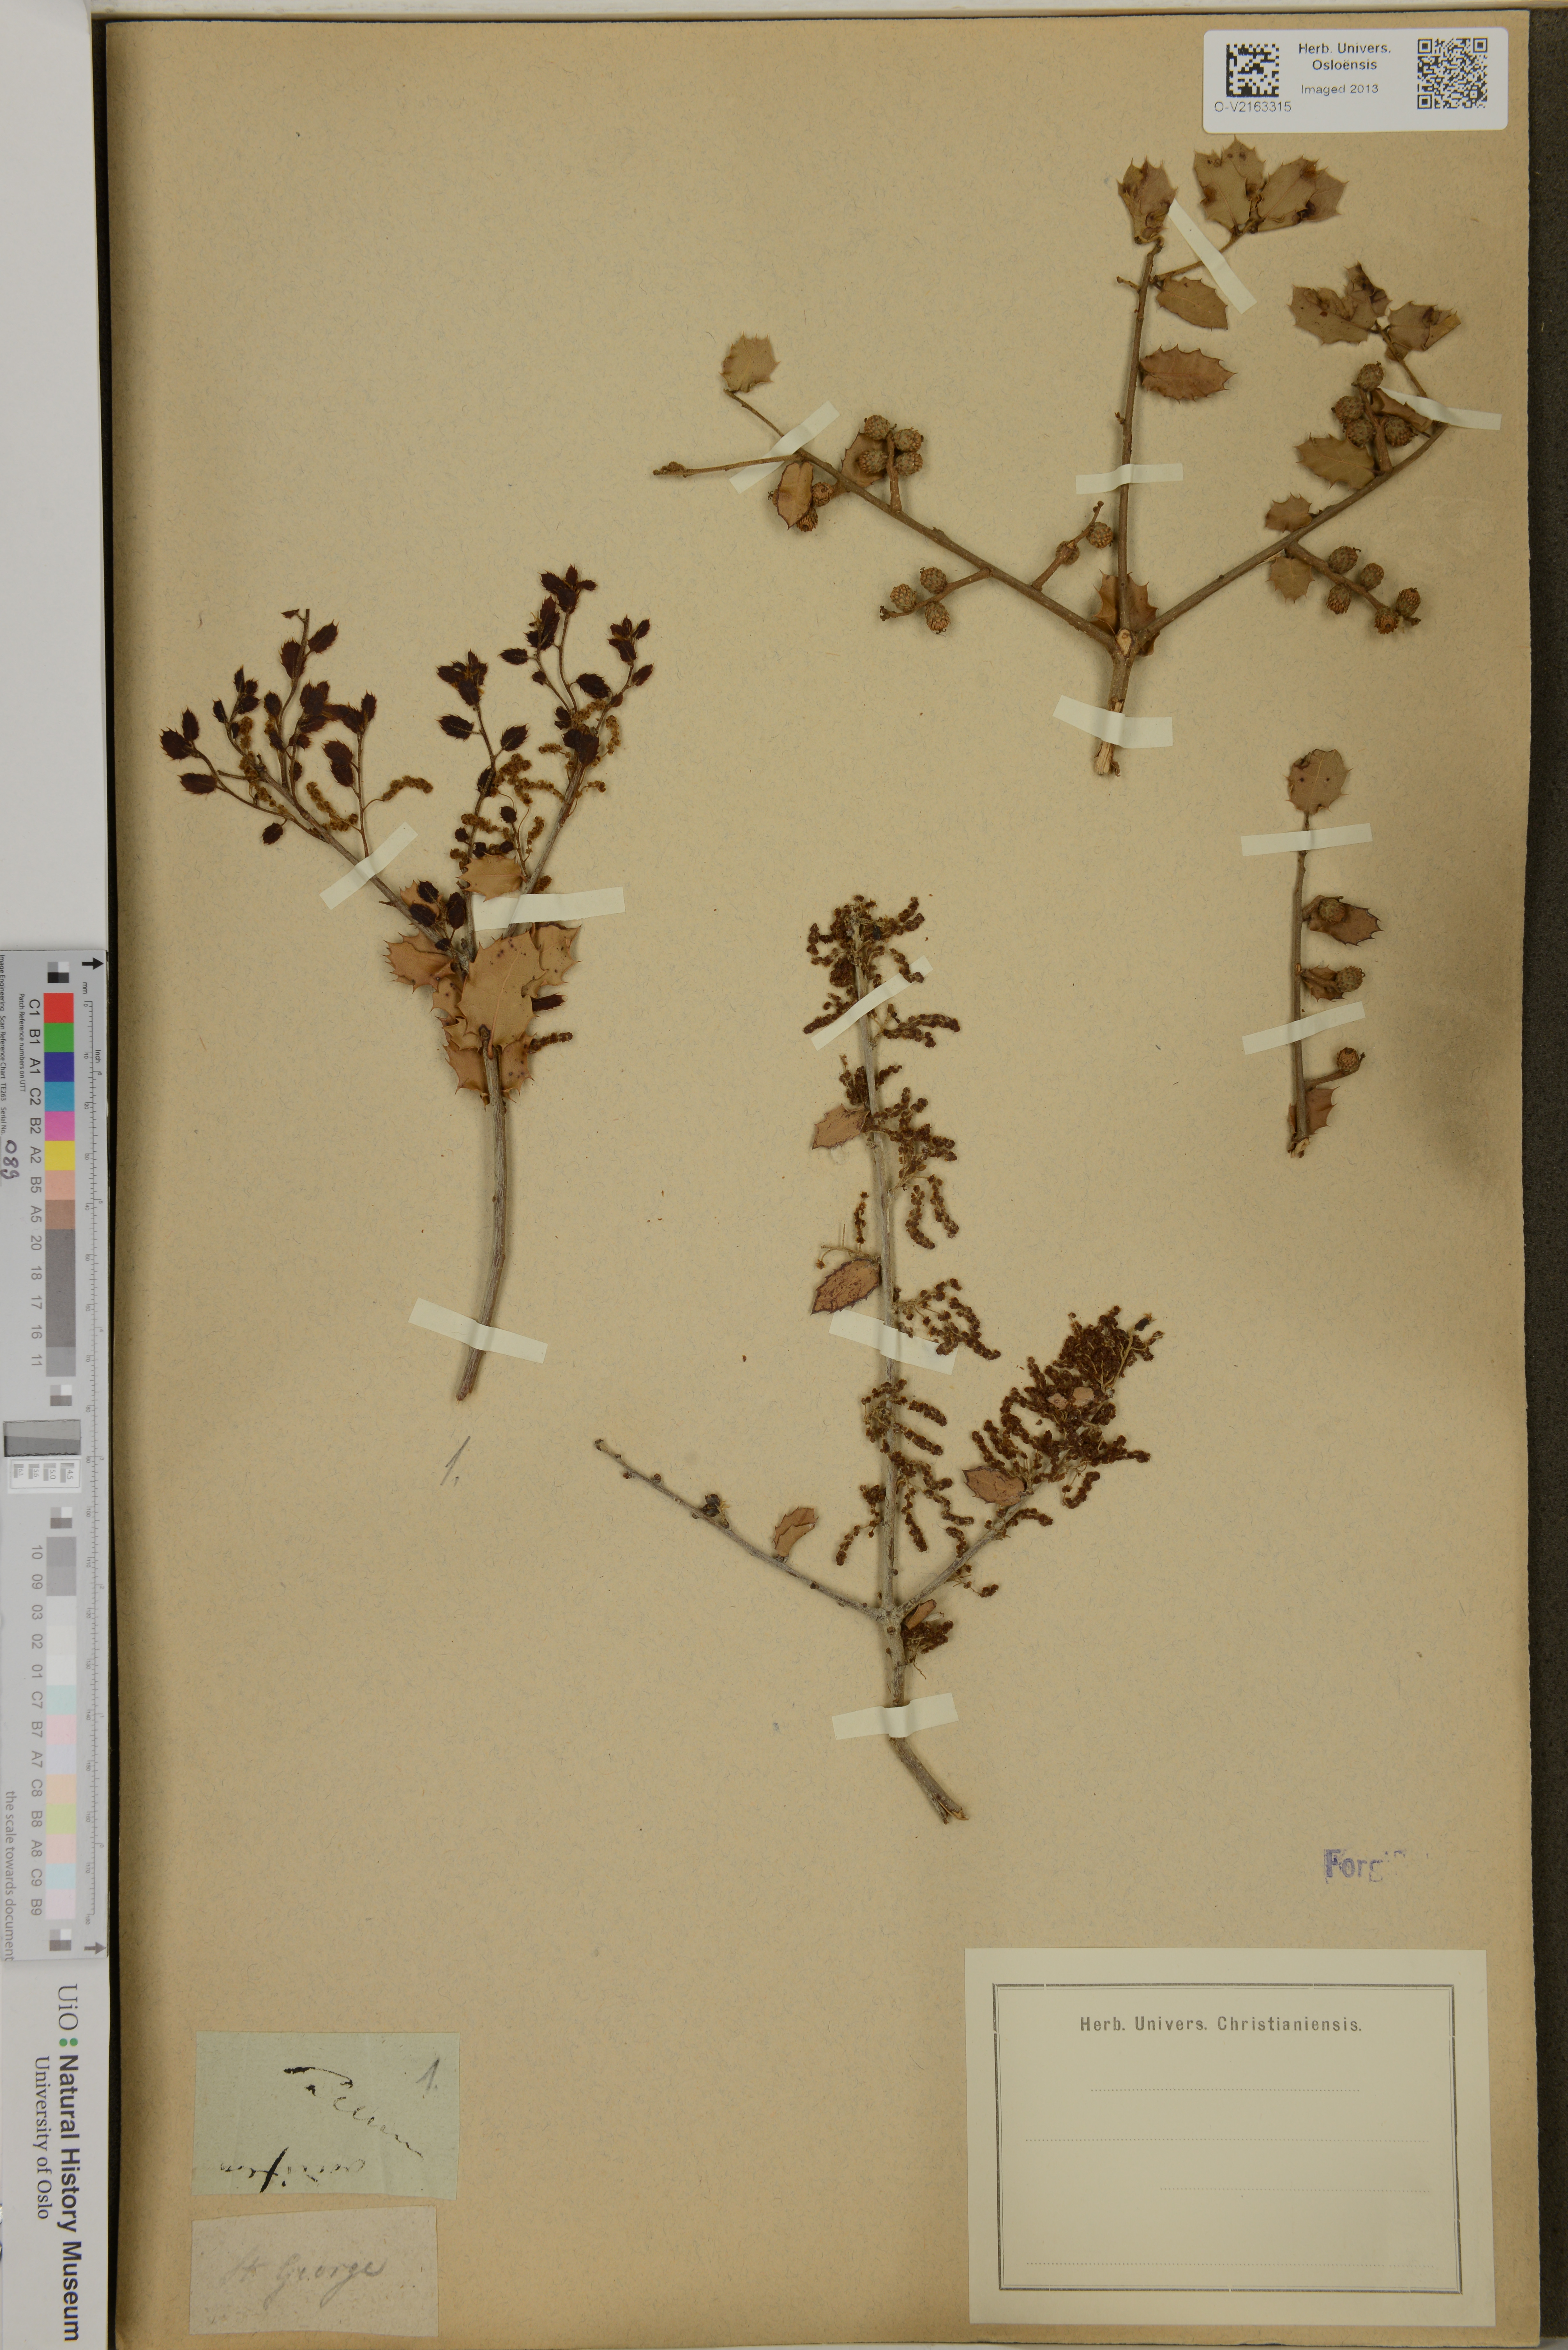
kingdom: Plantae
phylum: Tracheophyta
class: Magnoliopsida
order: Fagales
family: Fagaceae
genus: Quercus
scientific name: Quercus
